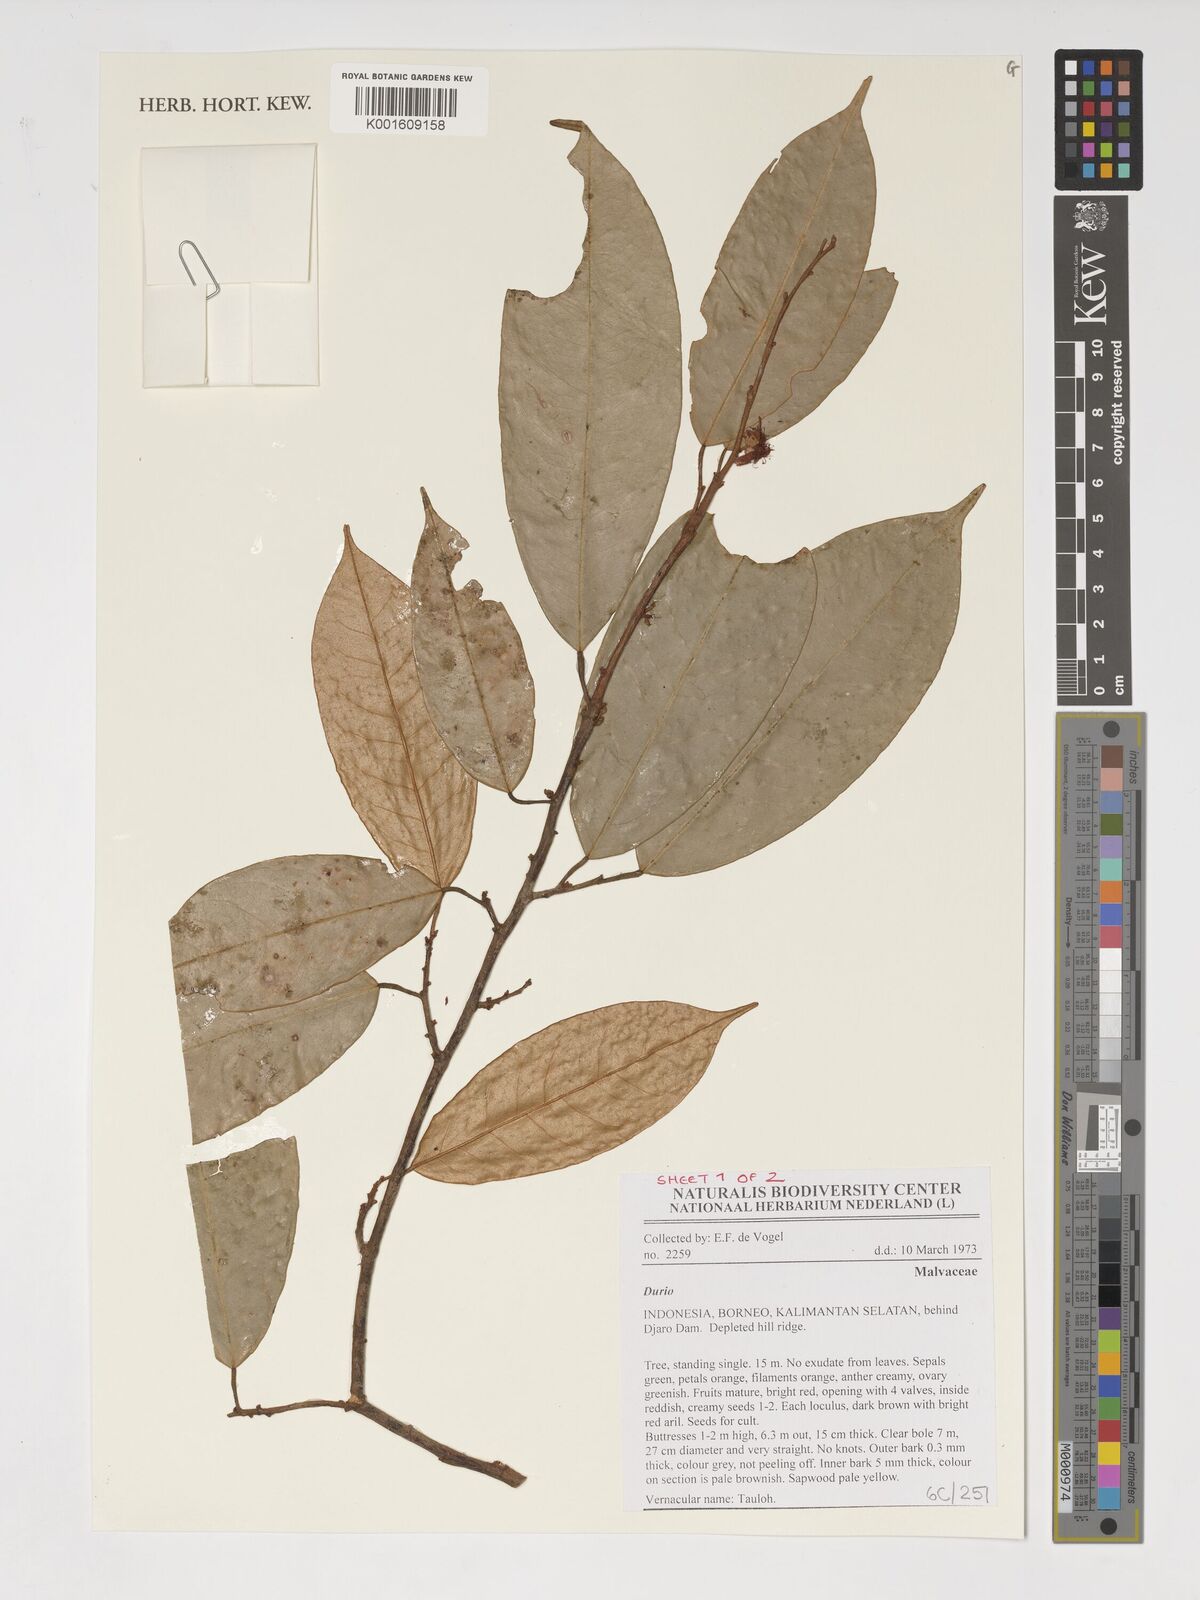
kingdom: Plantae
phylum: Tracheophyta
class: Magnoliopsida
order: Malvales
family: Malvaceae
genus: Durio
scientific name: Durio
